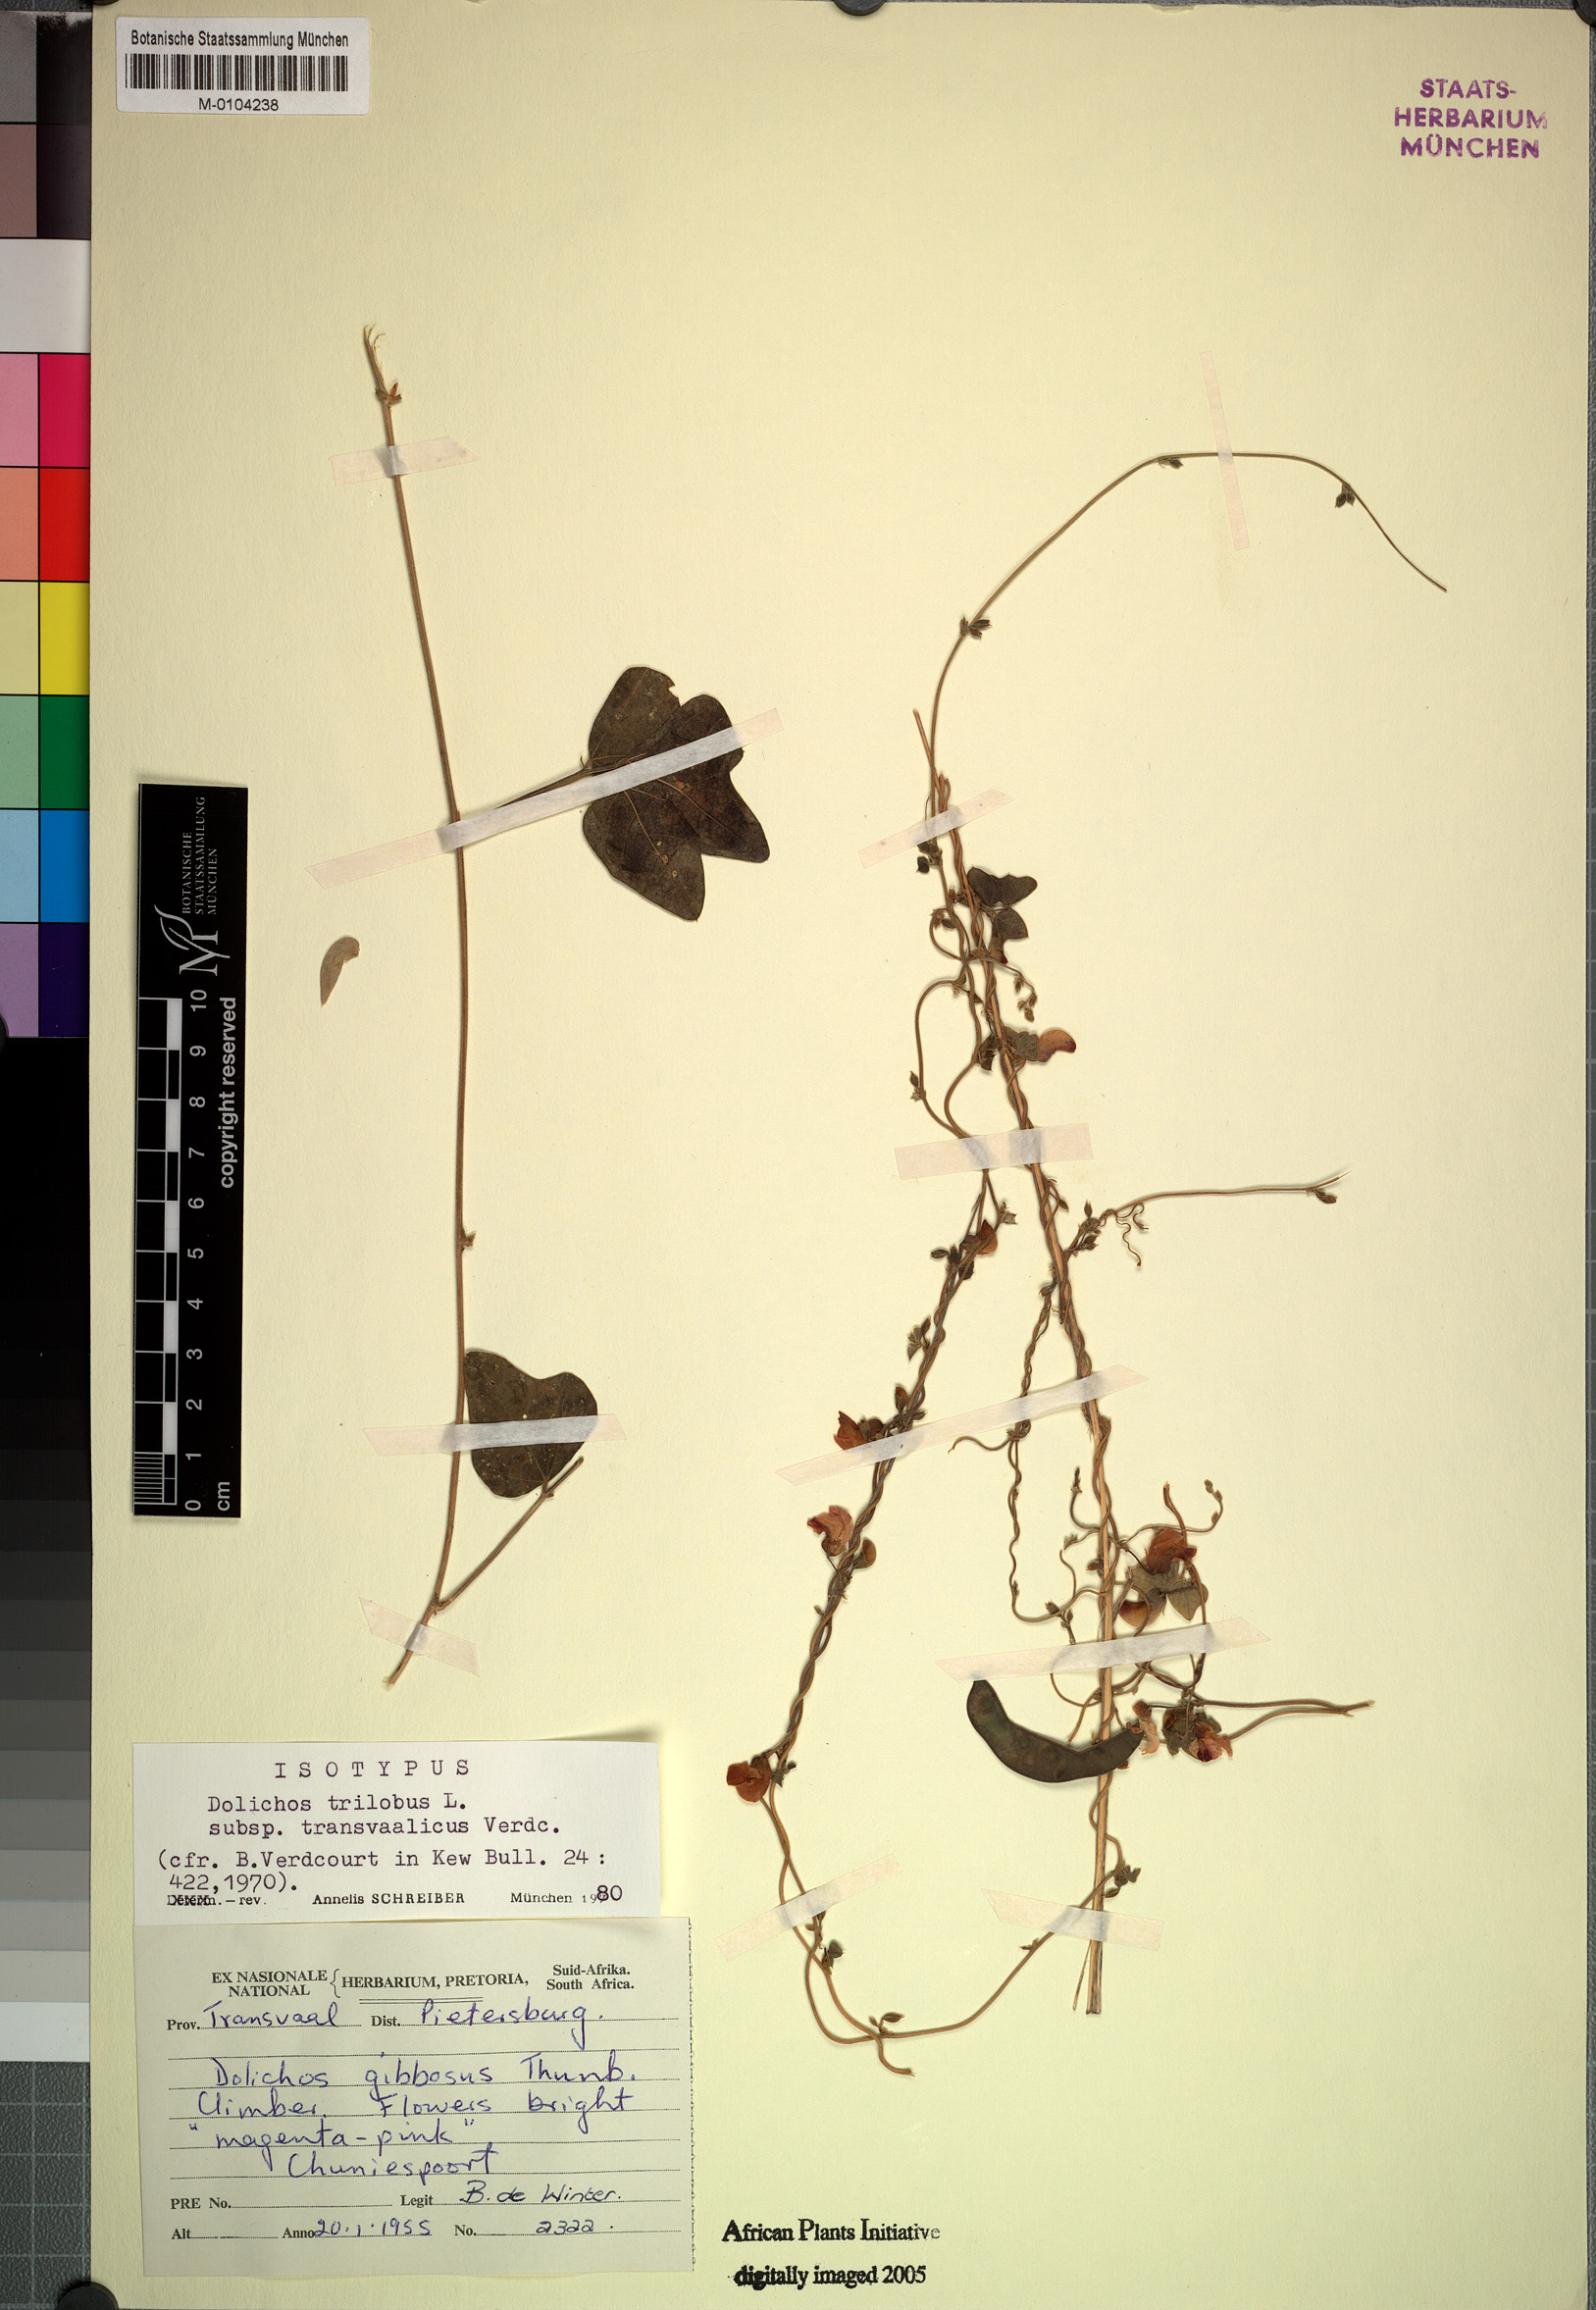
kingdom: Plantae
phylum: Tracheophyta
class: Magnoliopsida
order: Fabales
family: Fabaceae
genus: Dolichos
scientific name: Dolichos trilobus
